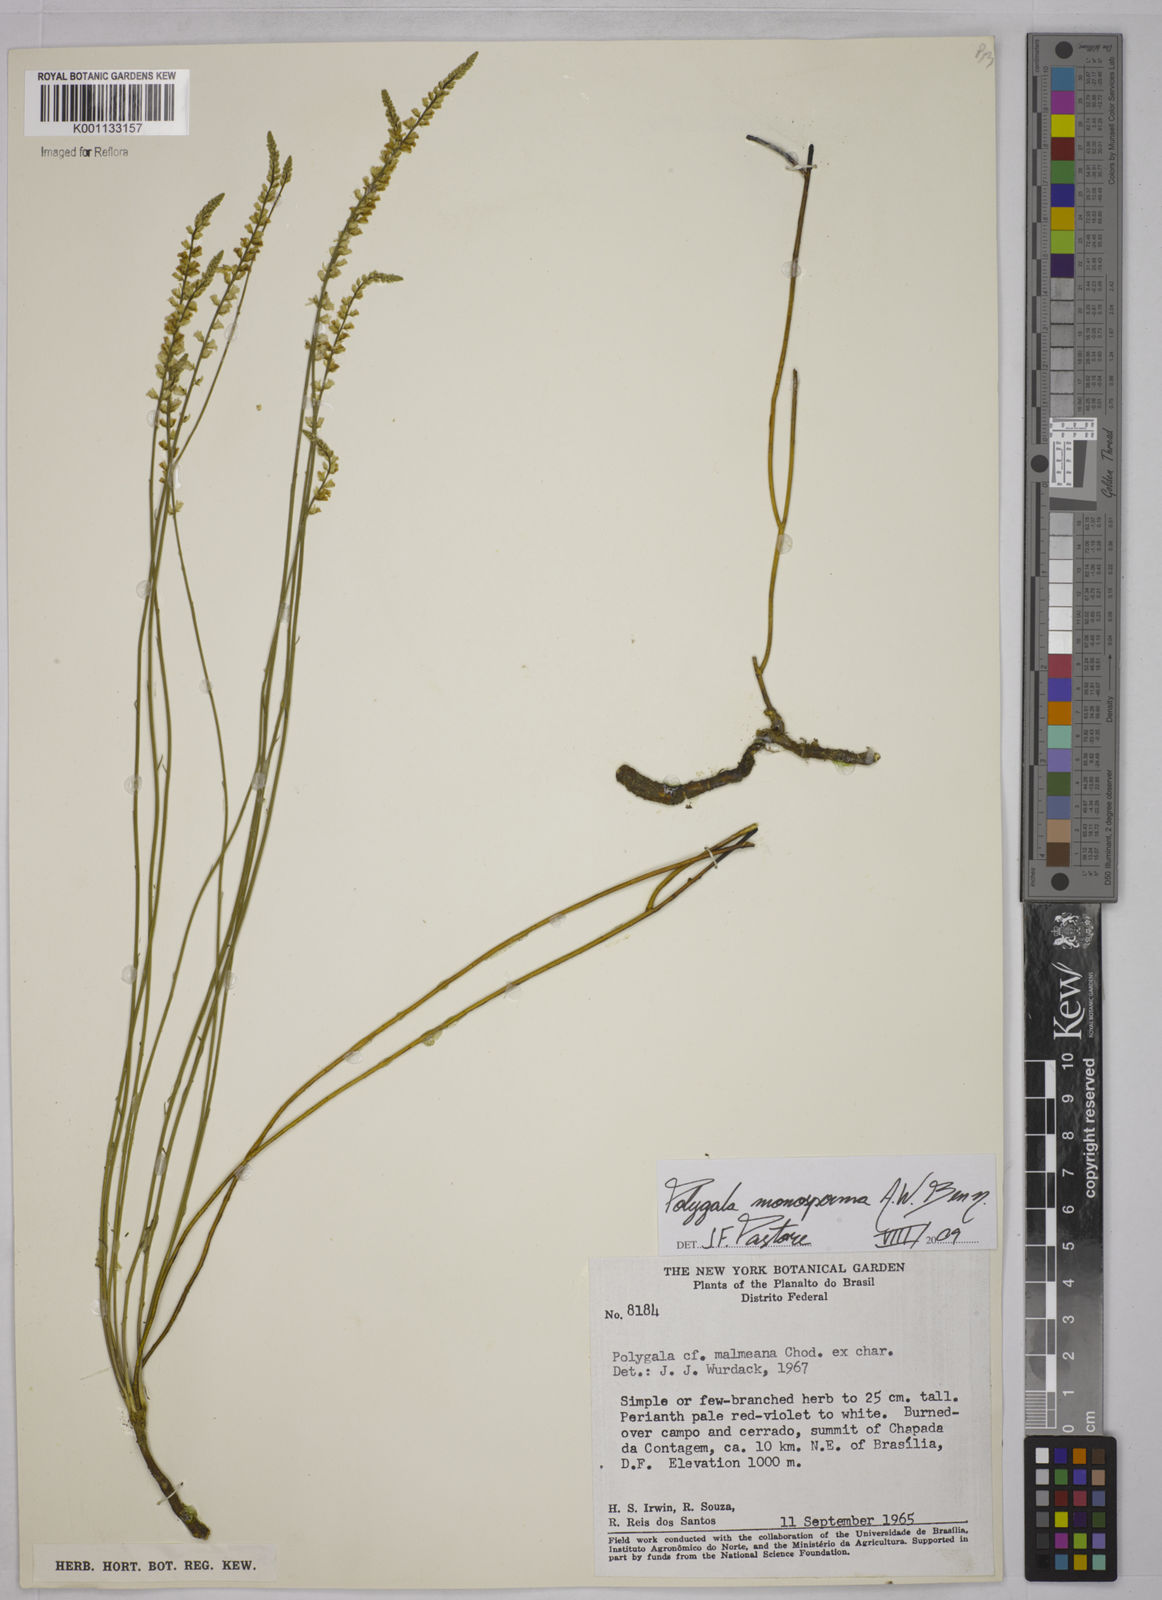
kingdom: Plantae
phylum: Tracheophyta
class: Magnoliopsida
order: Fabales
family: Polygalaceae
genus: Polygala
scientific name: Polygala monosperma
